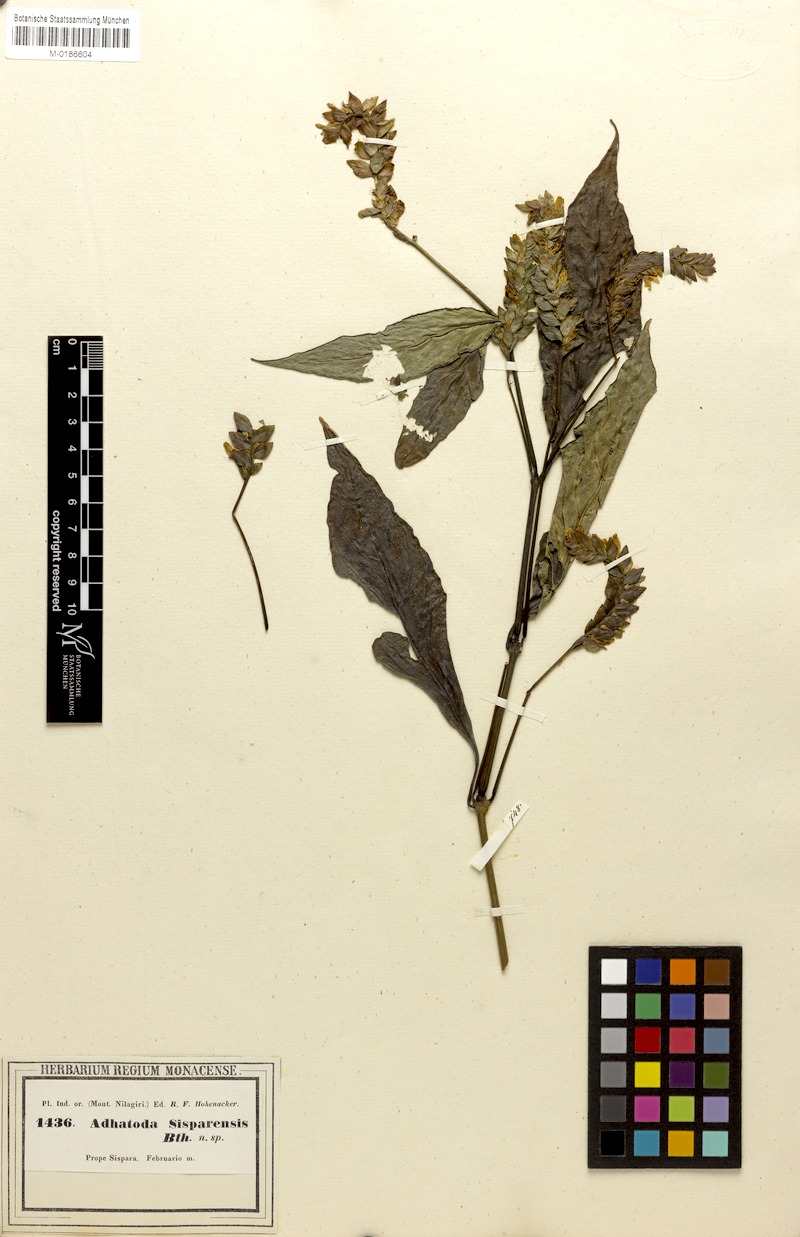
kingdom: Plantae
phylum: Tracheophyta
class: Magnoliopsida
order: Lamiales
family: Acanthaceae
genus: Rungia
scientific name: Rungia sisparensis
